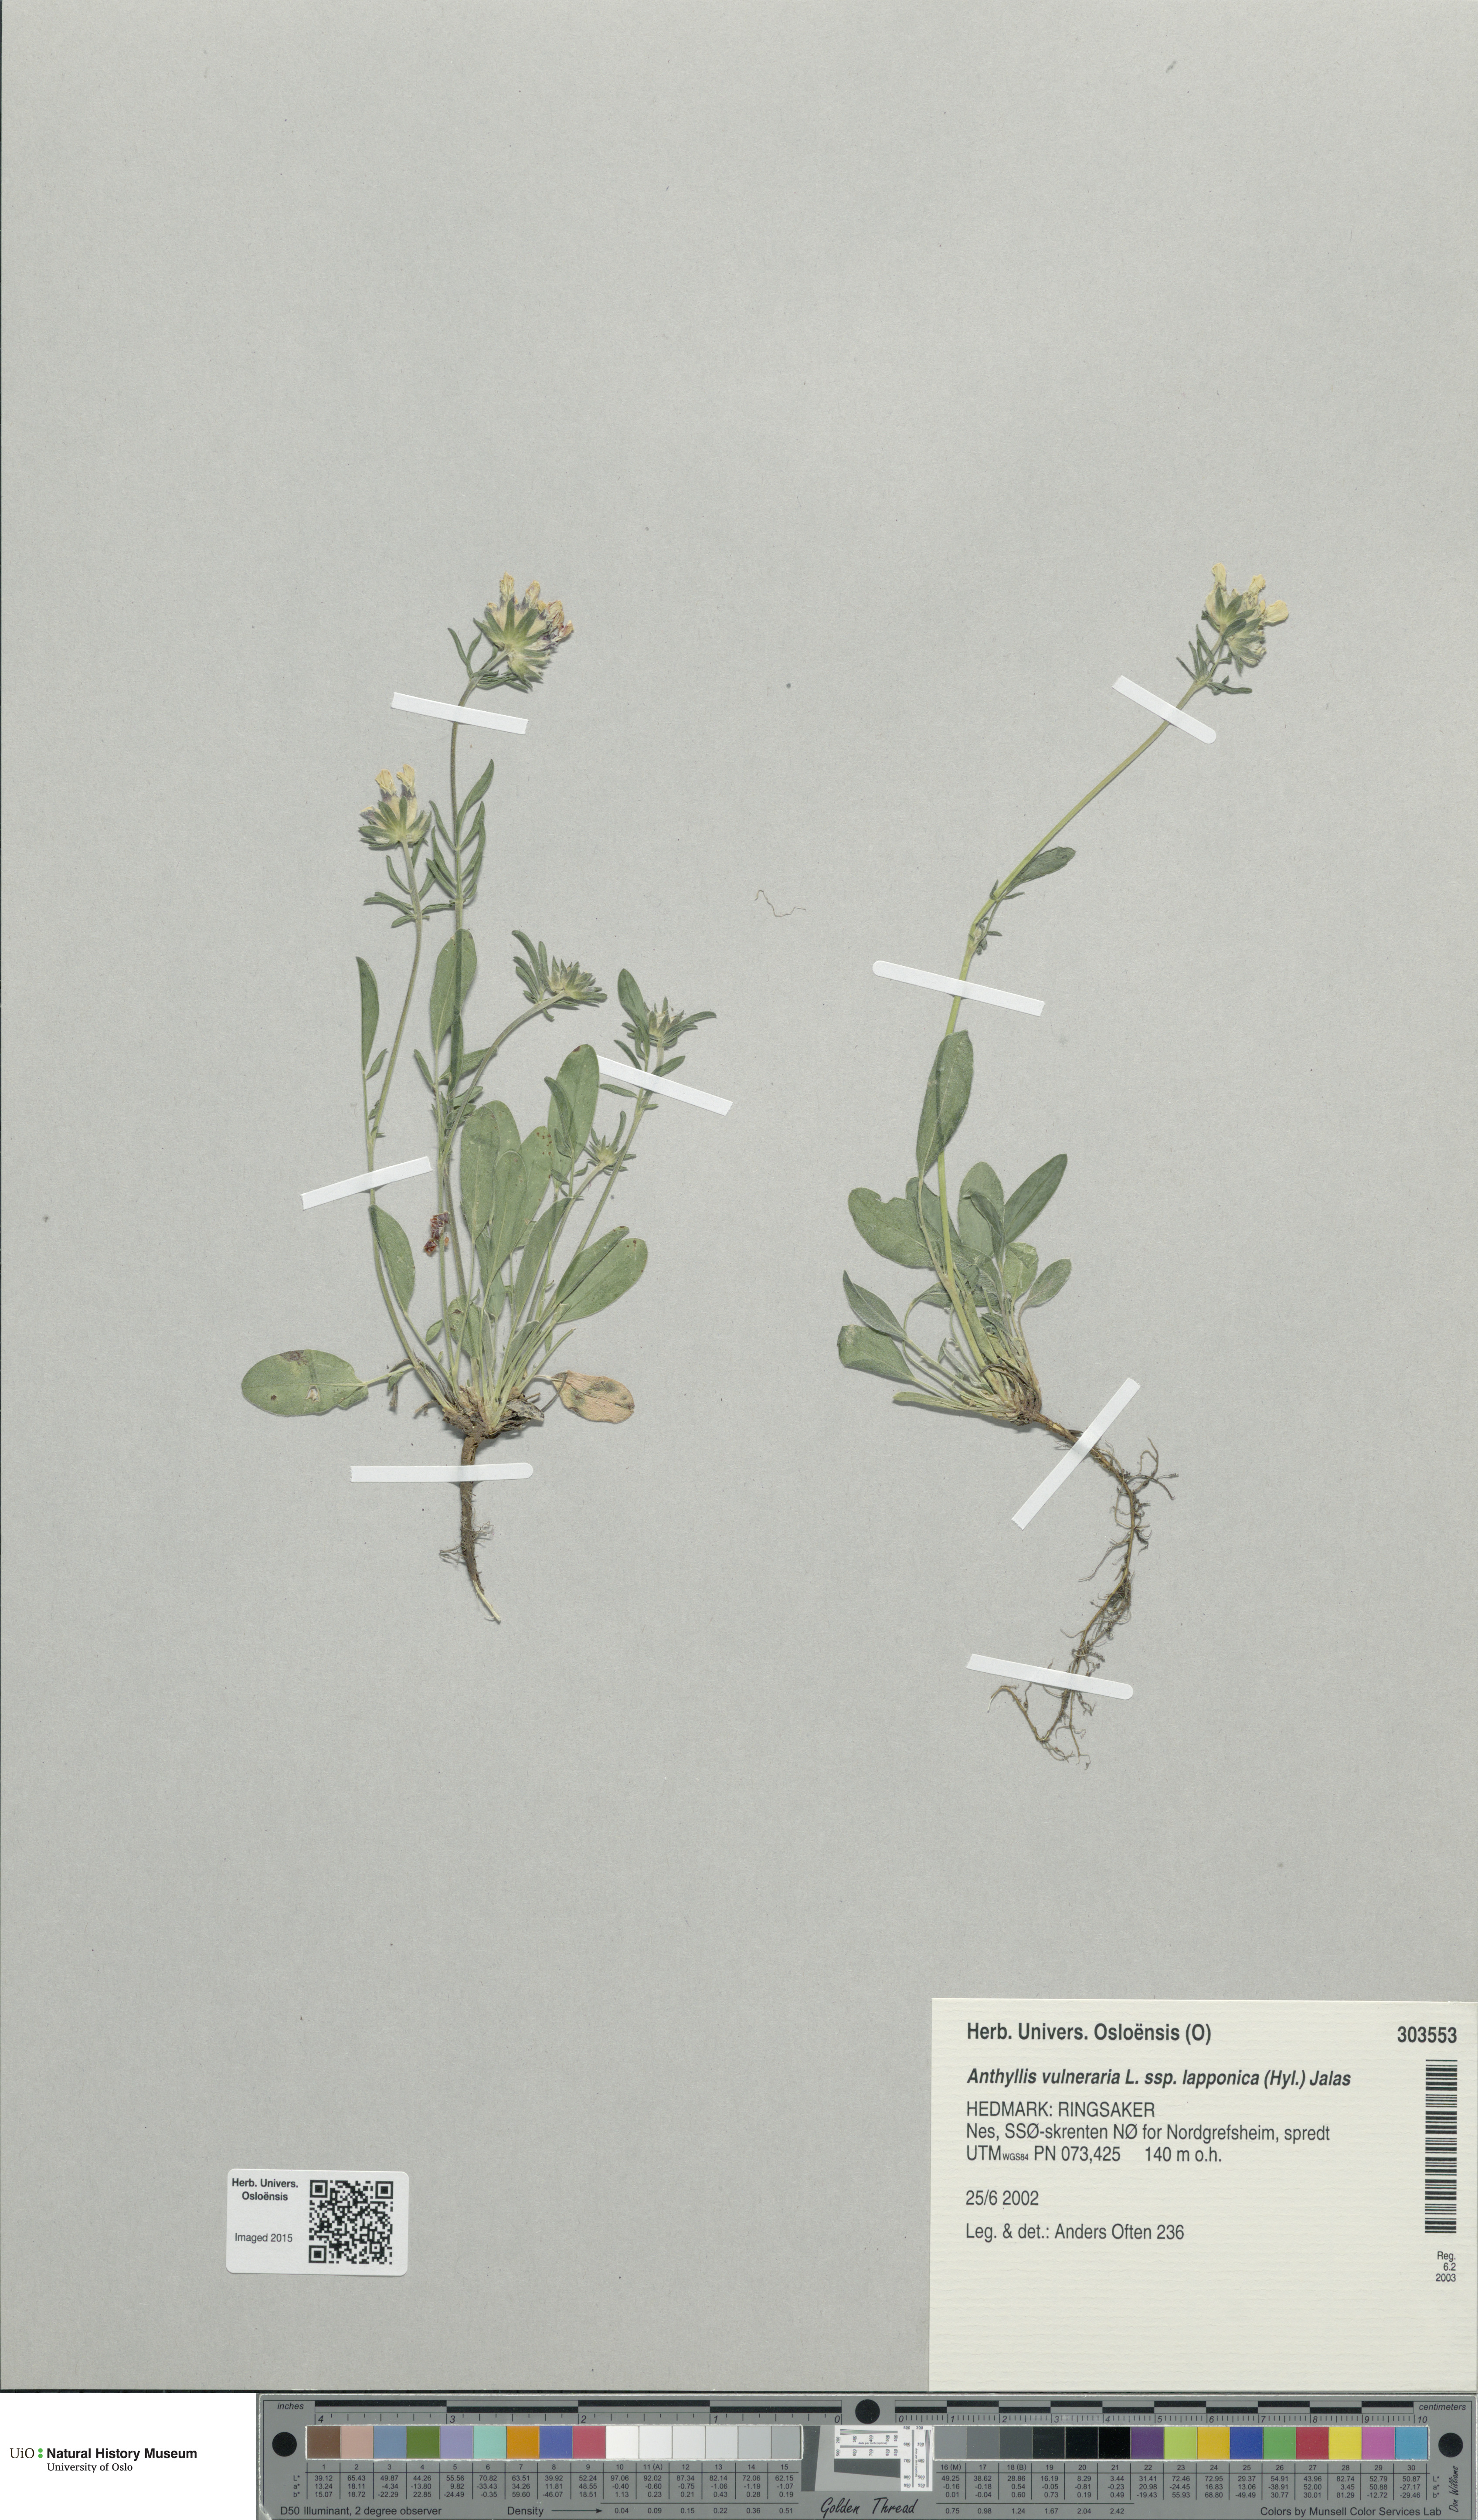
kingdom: Plantae
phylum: Tracheophyta
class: Magnoliopsida
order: Fabales
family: Fabaceae
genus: Anthyllis
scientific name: Anthyllis vulneraria
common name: Kidney vetch
